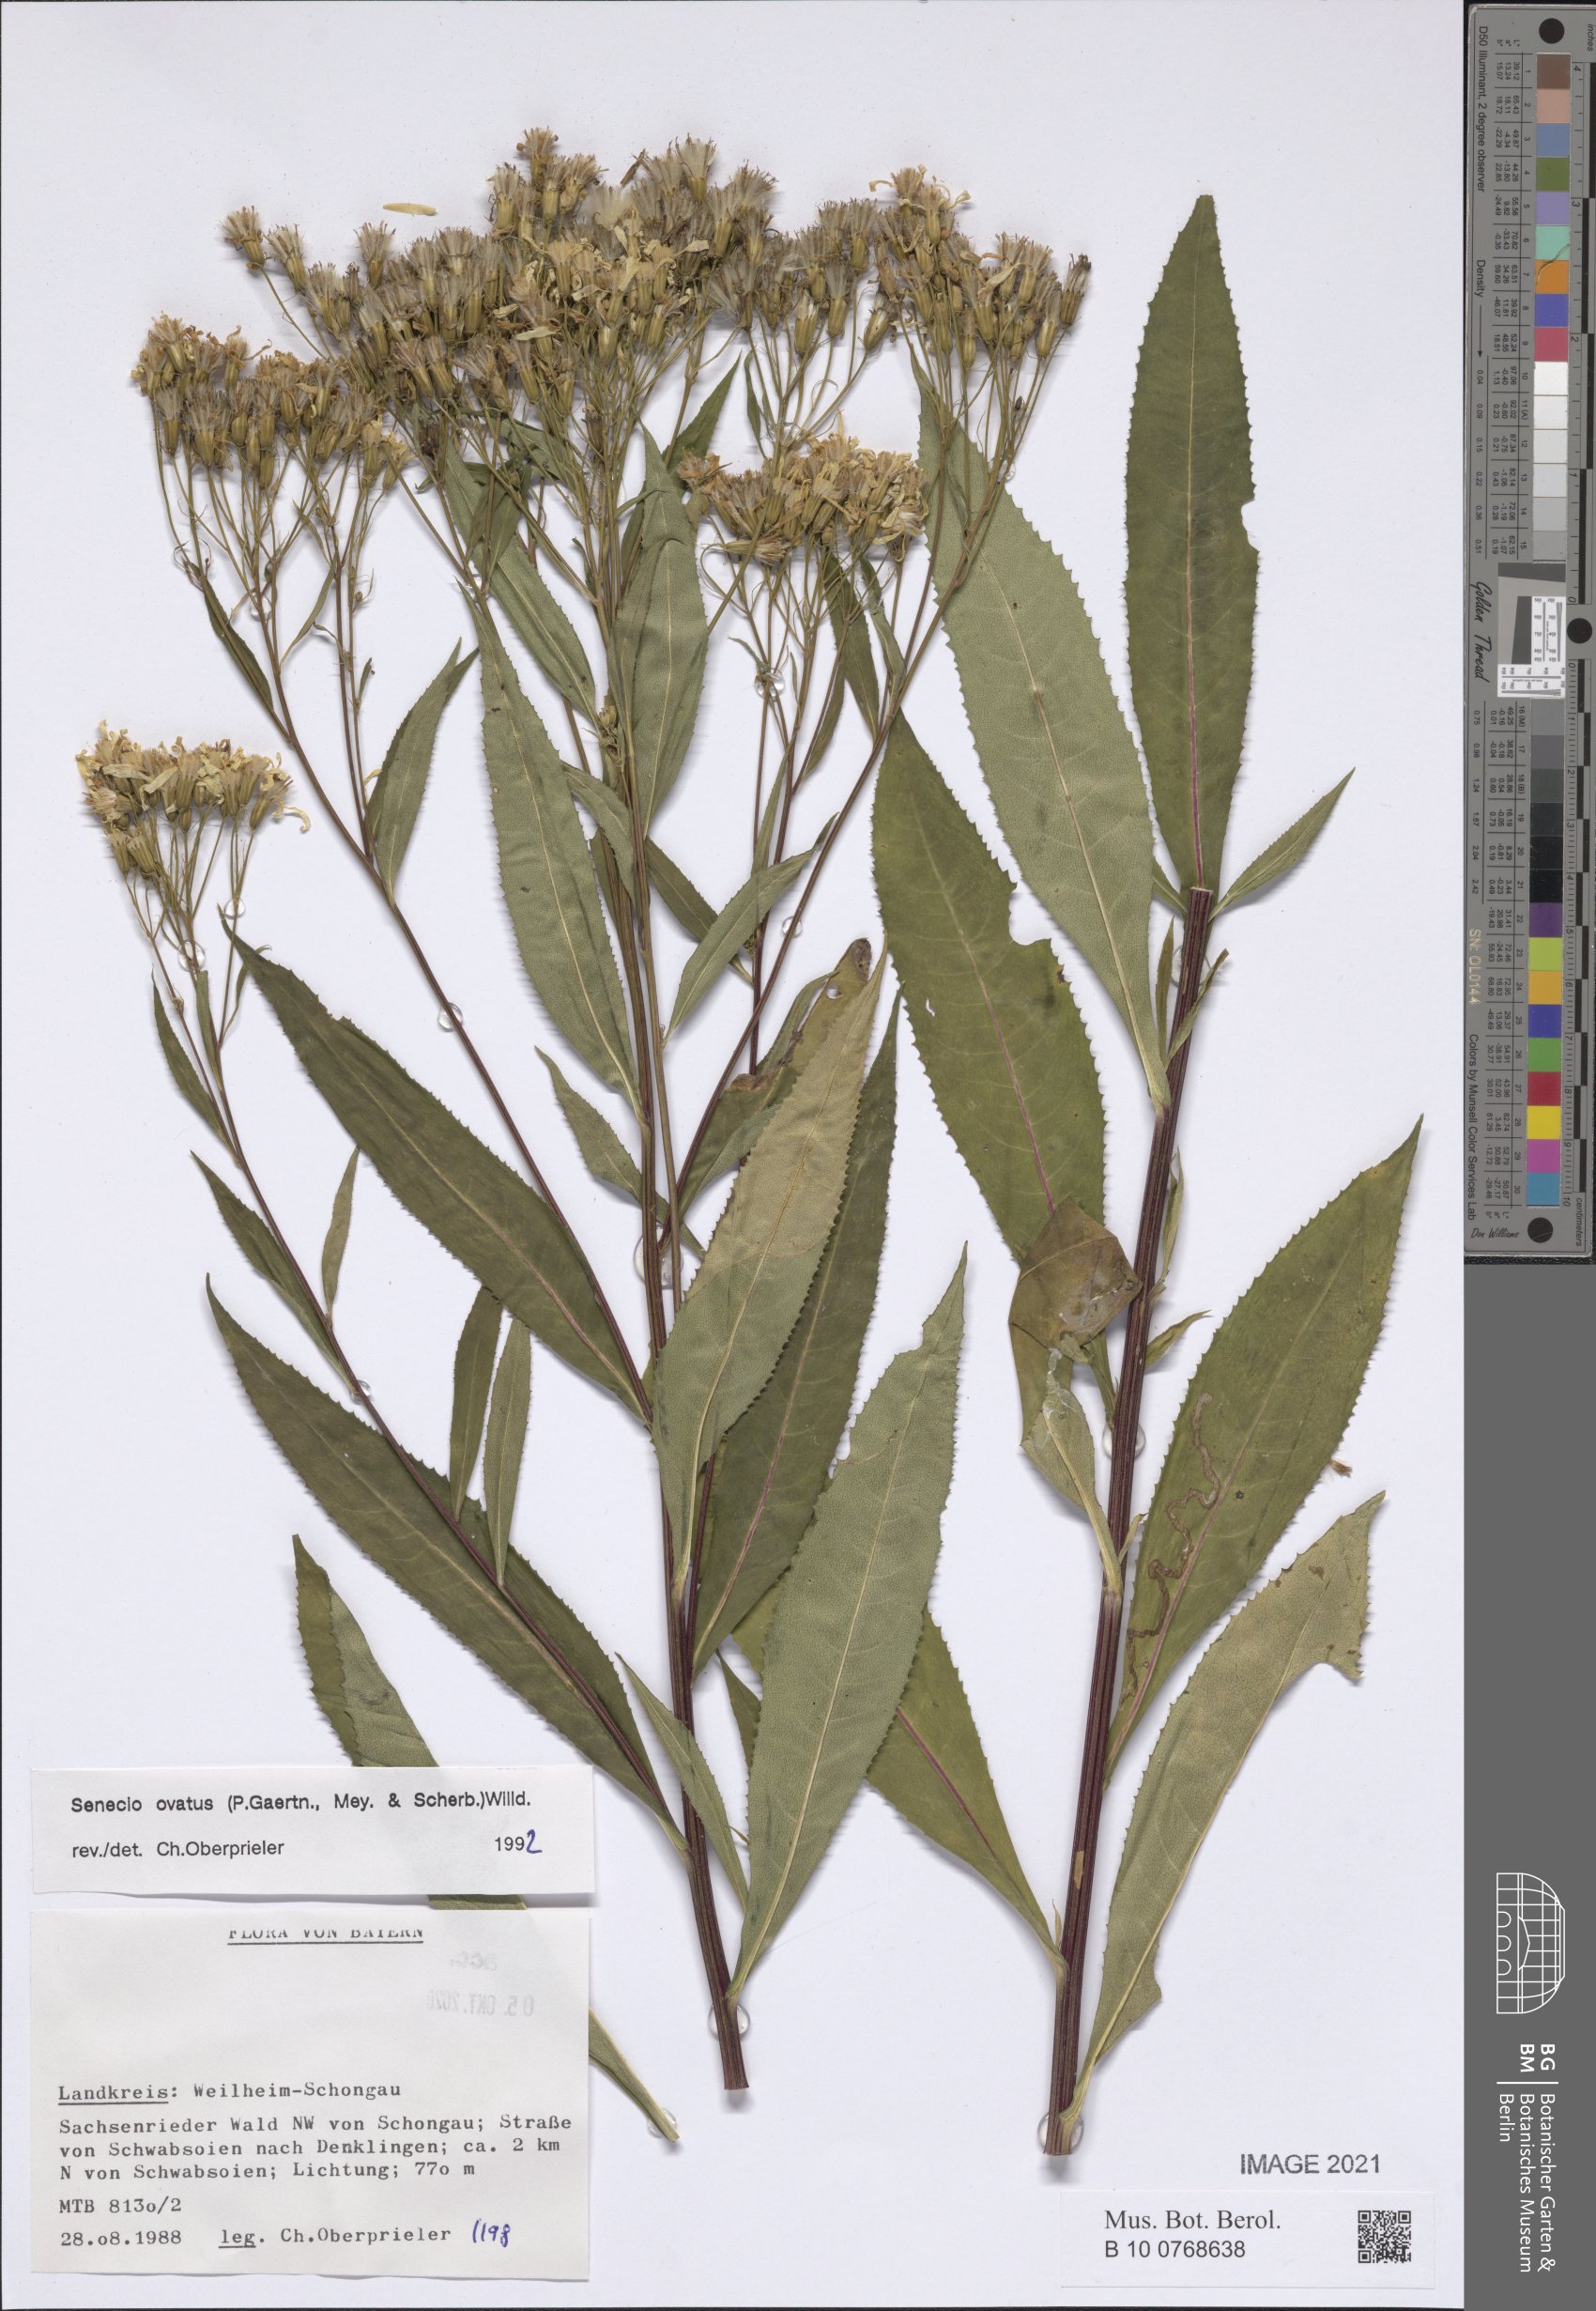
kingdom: Plantae
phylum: Tracheophyta
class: Magnoliopsida
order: Asterales
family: Asteraceae
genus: Senecio
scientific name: Senecio ovatus
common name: Wood ragwort
